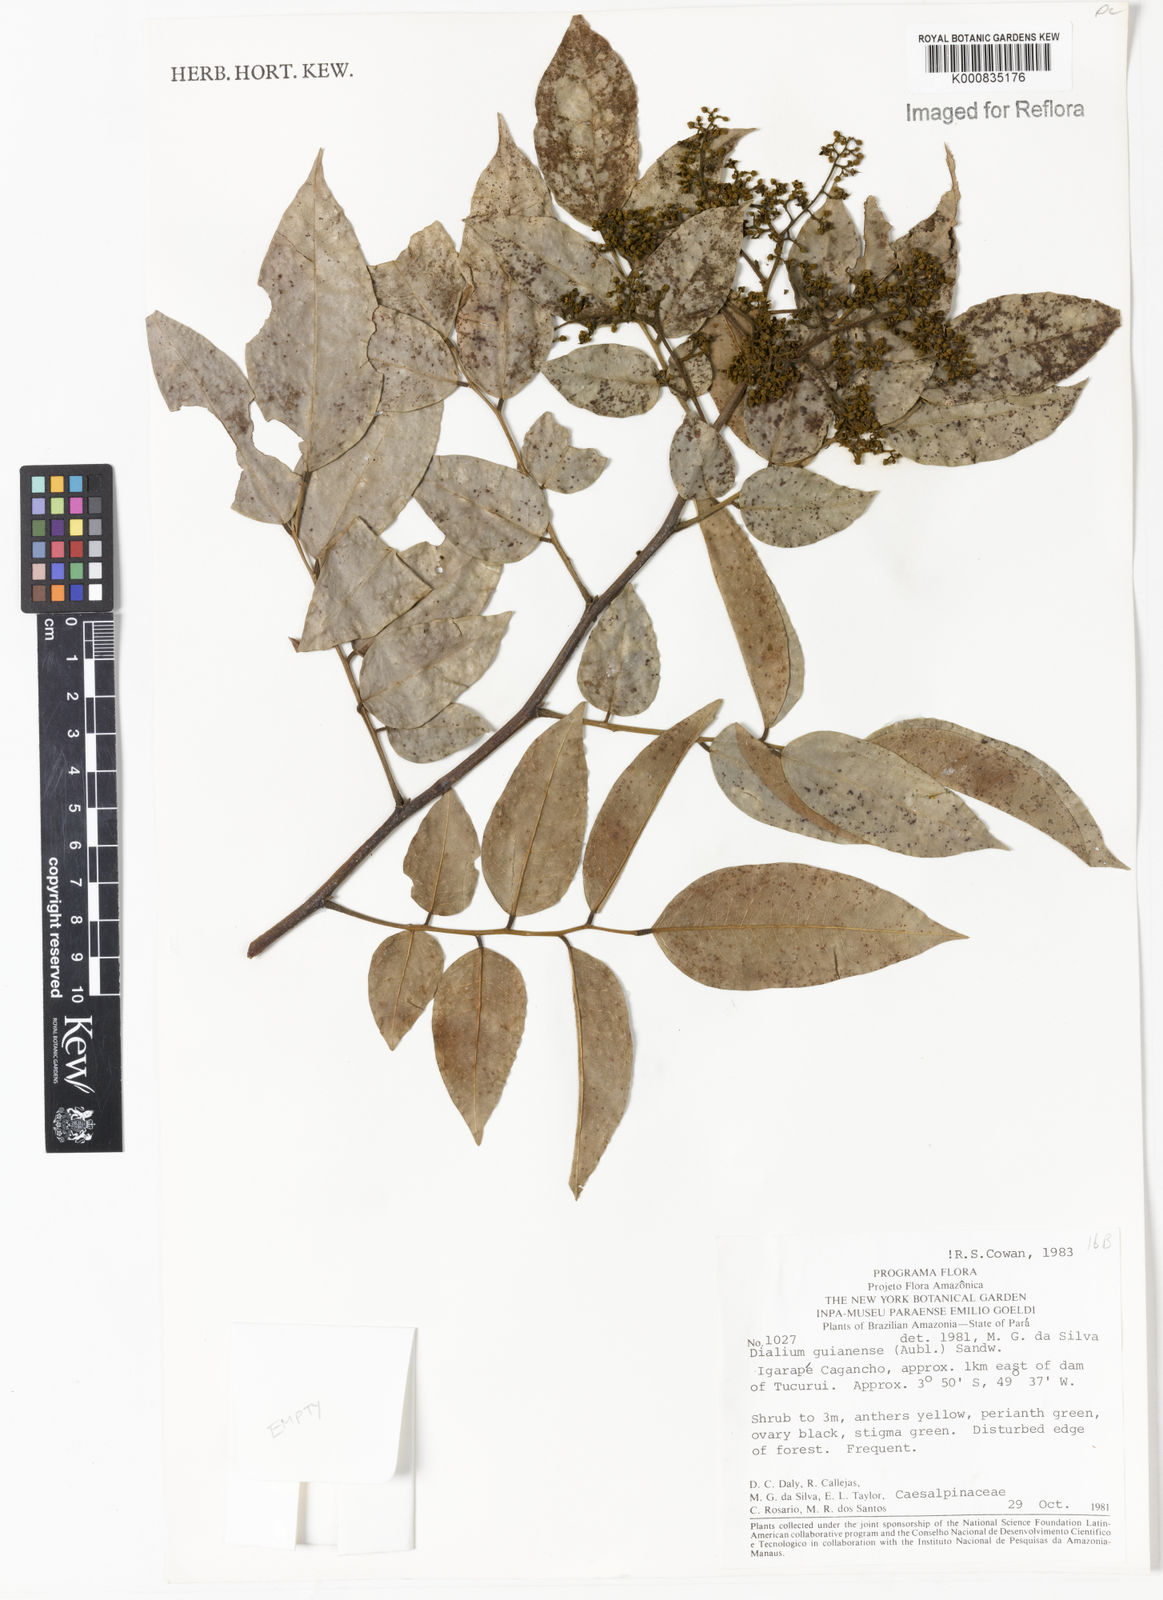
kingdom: Plantae
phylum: Tracheophyta
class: Magnoliopsida
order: Fabales
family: Fabaceae
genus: Dialium
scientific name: Dialium guianense
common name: Ironwood
